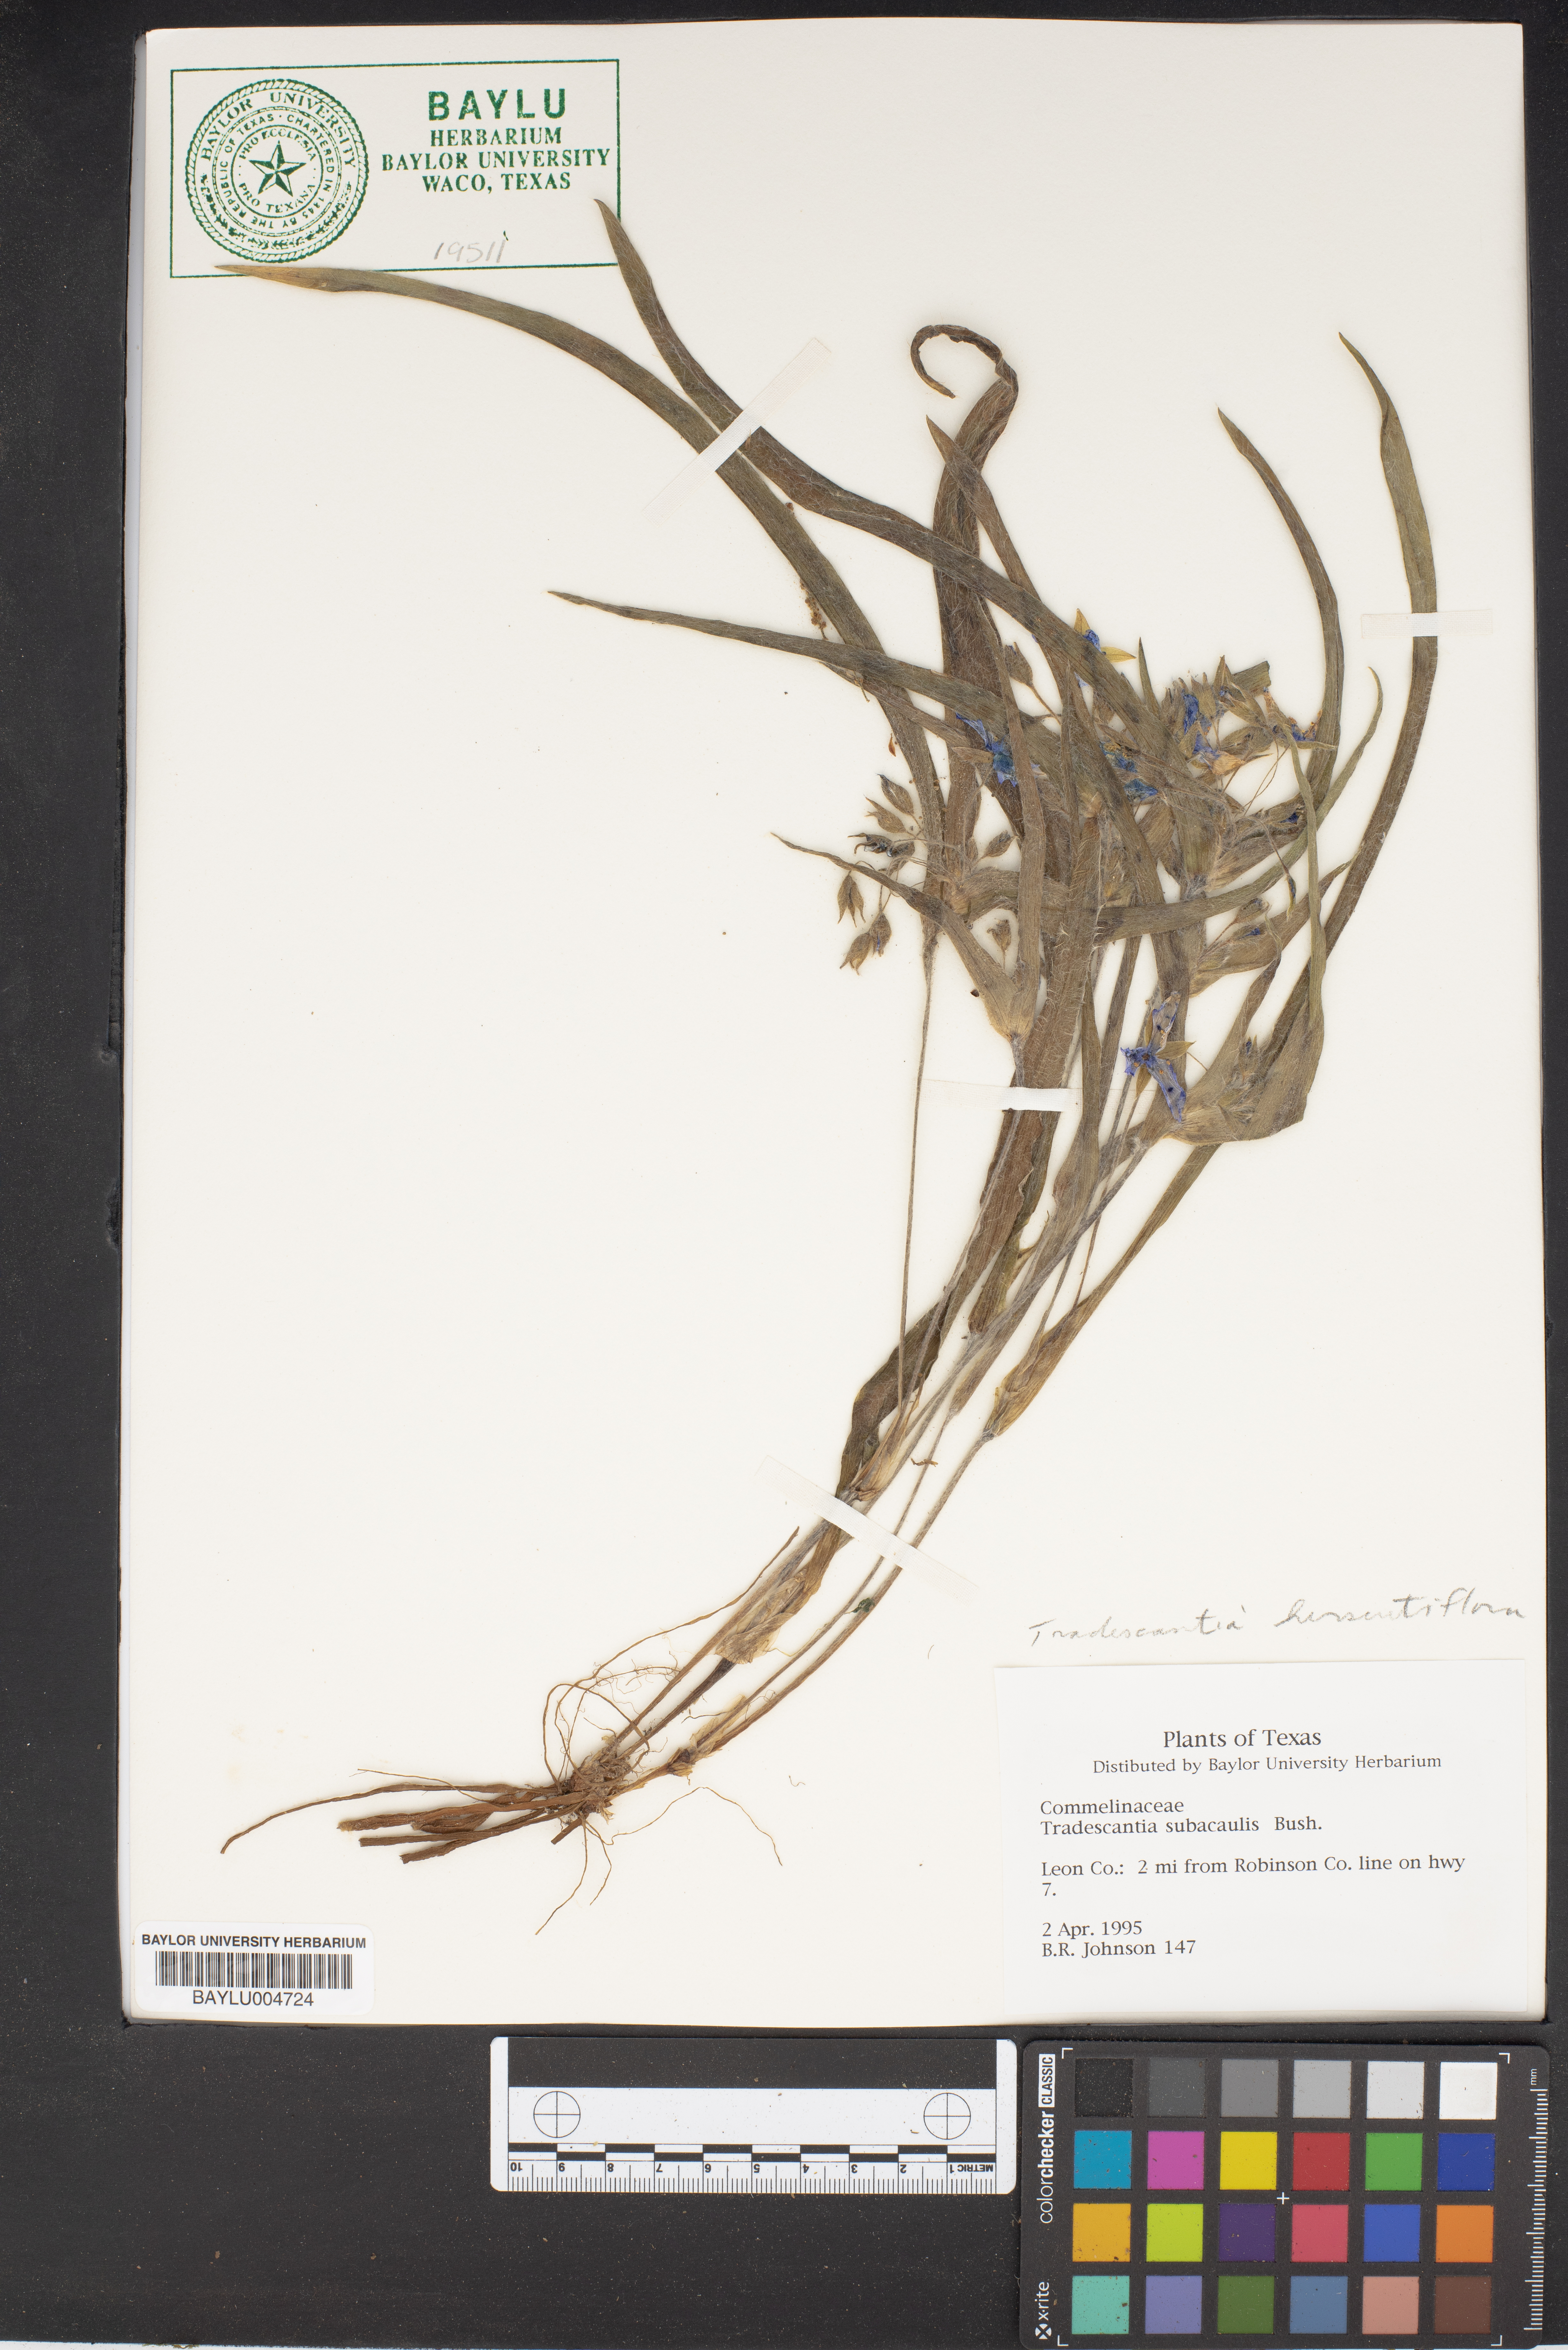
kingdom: Plantae
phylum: Tracheophyta
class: Liliopsida
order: Commelinales
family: Commelinaceae
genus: Tradescantia
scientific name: Tradescantia hirsutiflora
